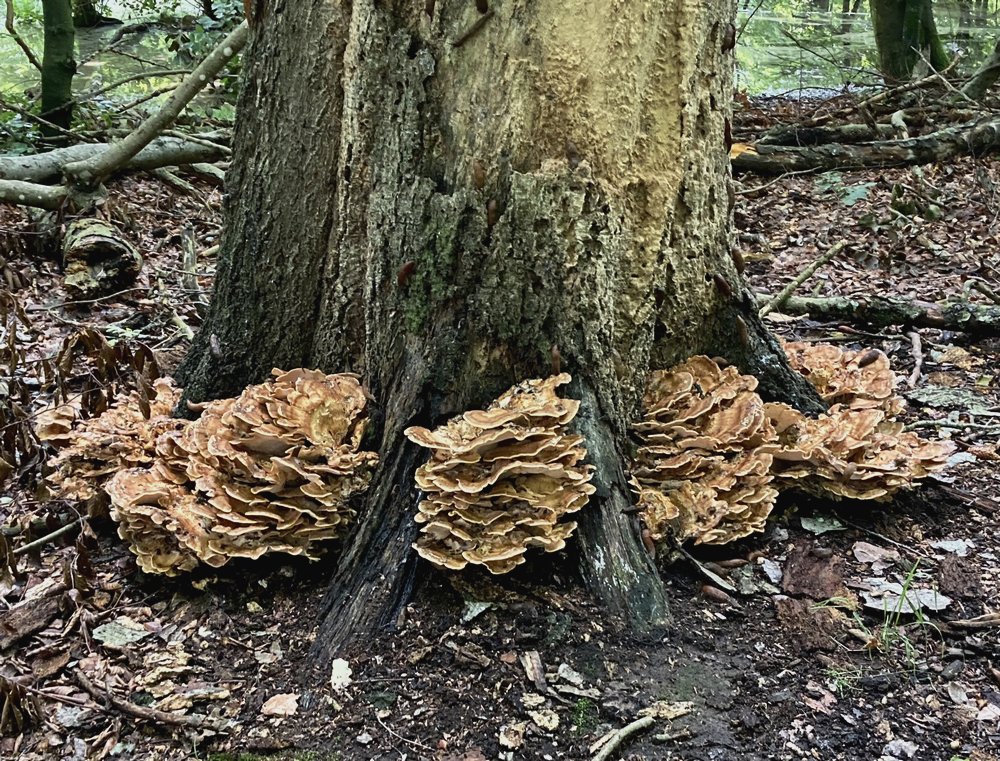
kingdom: Fungi
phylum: Basidiomycota
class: Agaricomycetes
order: Polyporales
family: Meripilaceae
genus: Meripilus
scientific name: Meripilus giganteus
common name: kæmpeporesvamp
